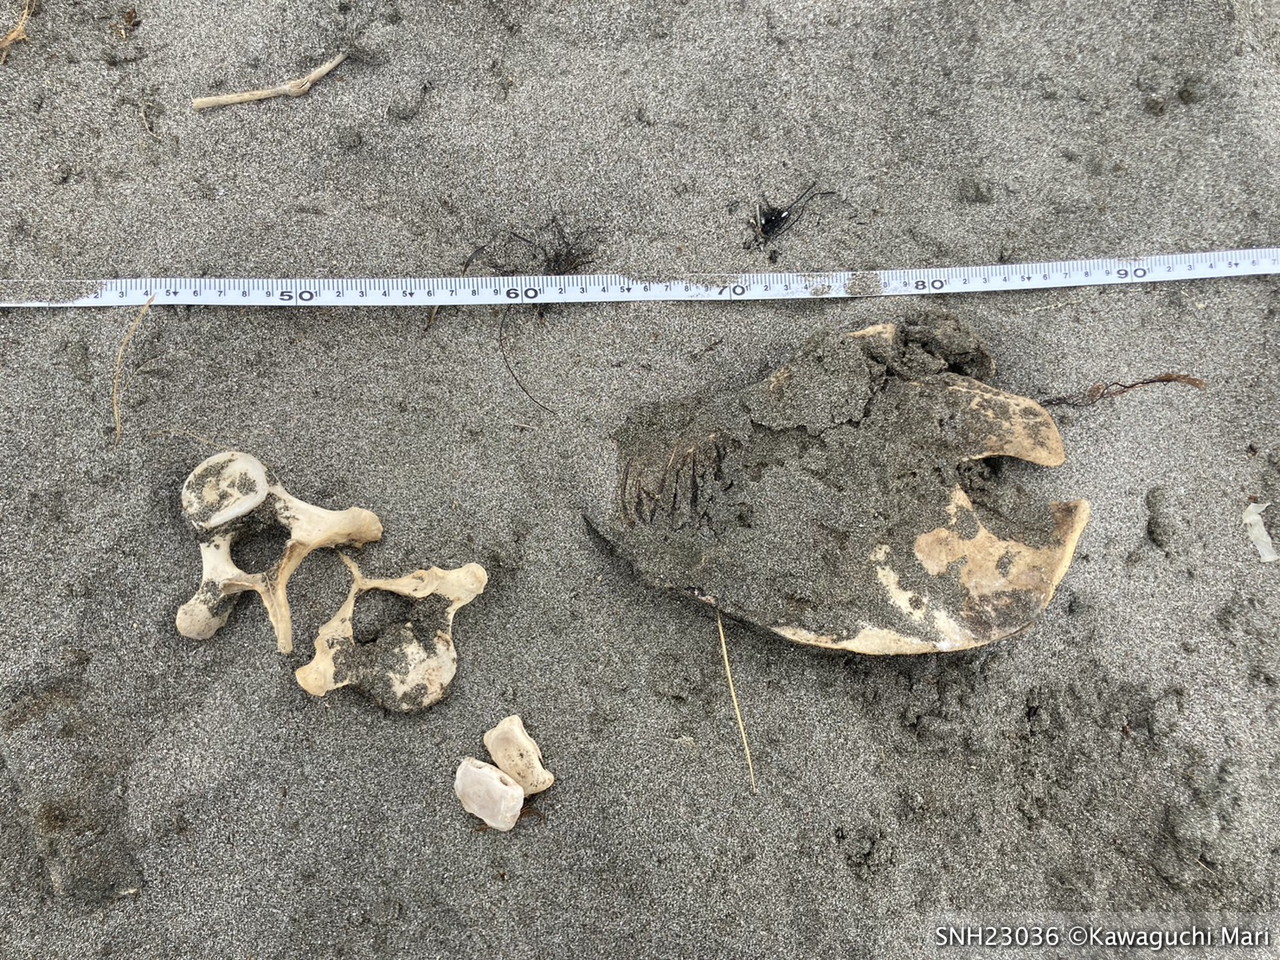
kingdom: Animalia
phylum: Chordata
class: Mammalia
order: Cetacea
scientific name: Cetacea
